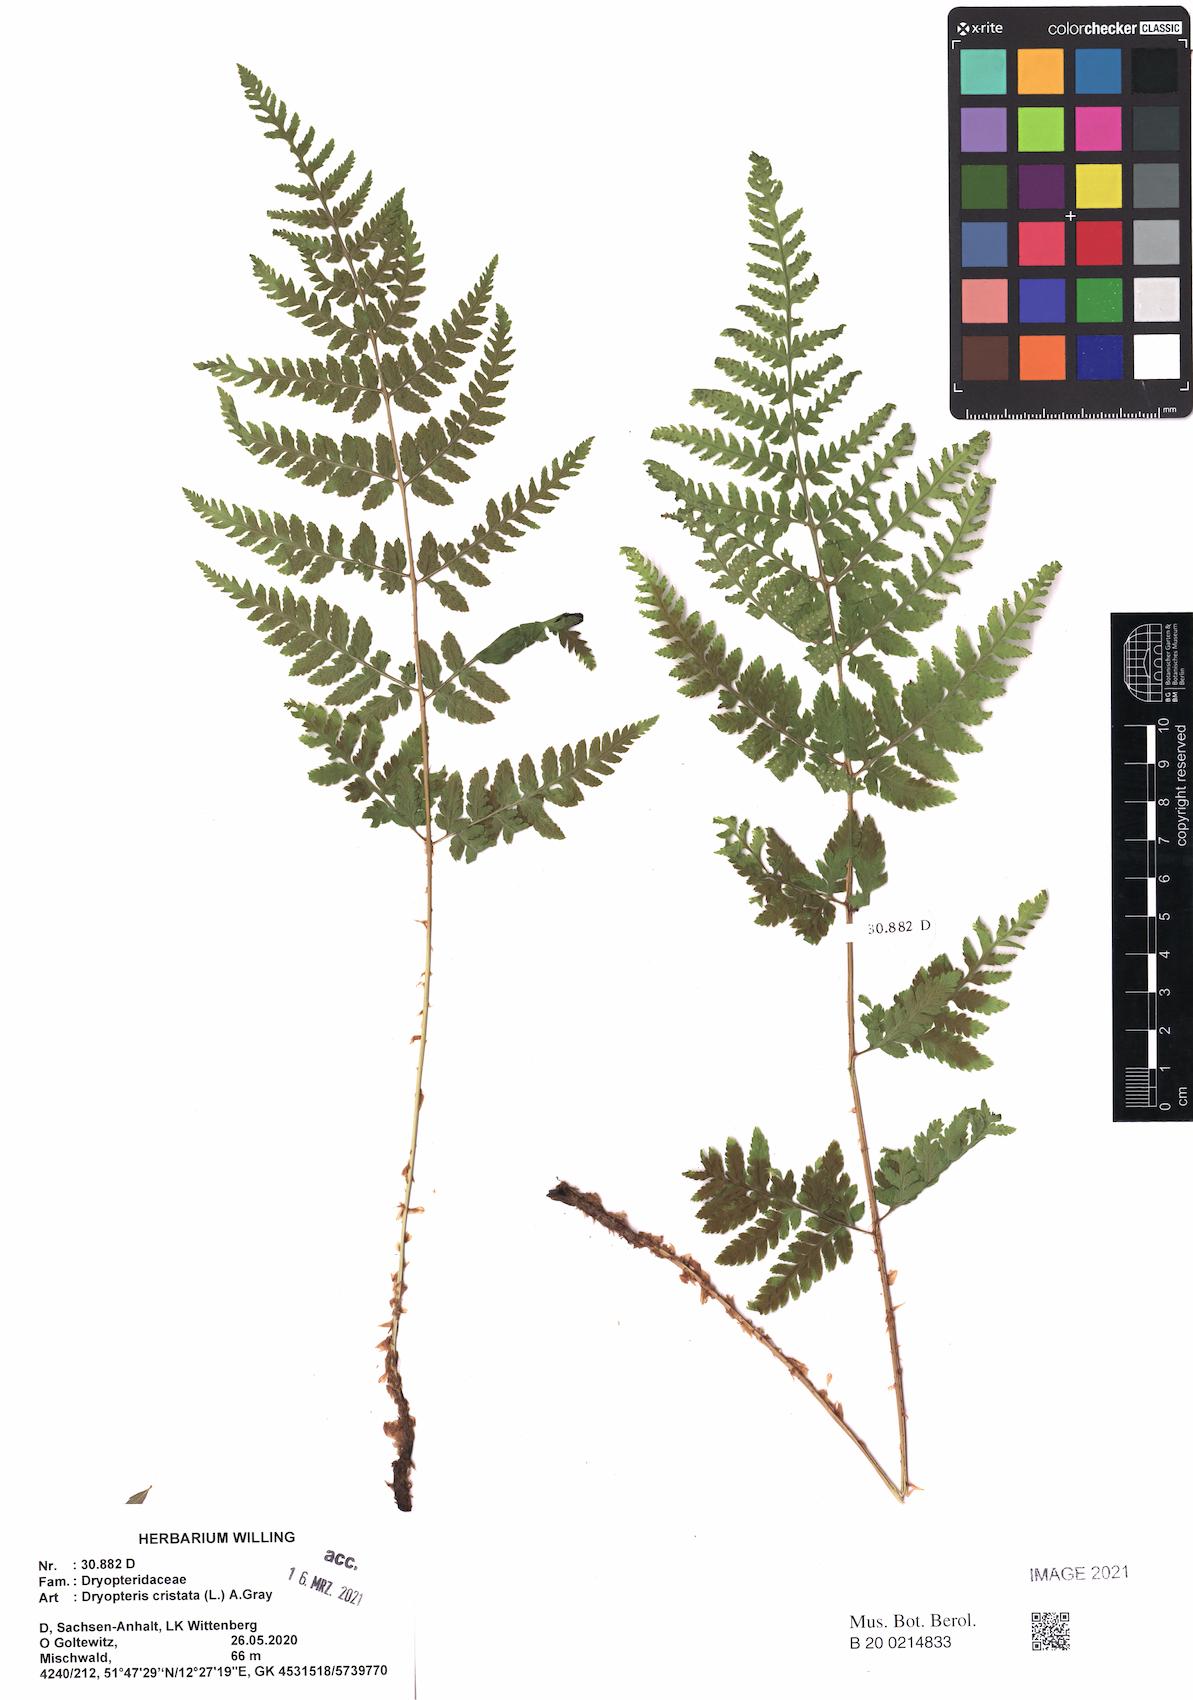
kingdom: Plantae
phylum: Tracheophyta
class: Polypodiopsida
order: Polypodiales
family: Dryopteridaceae
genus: Dryopteris
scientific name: Dryopteris carthusiana
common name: Narrow buckler-fern
